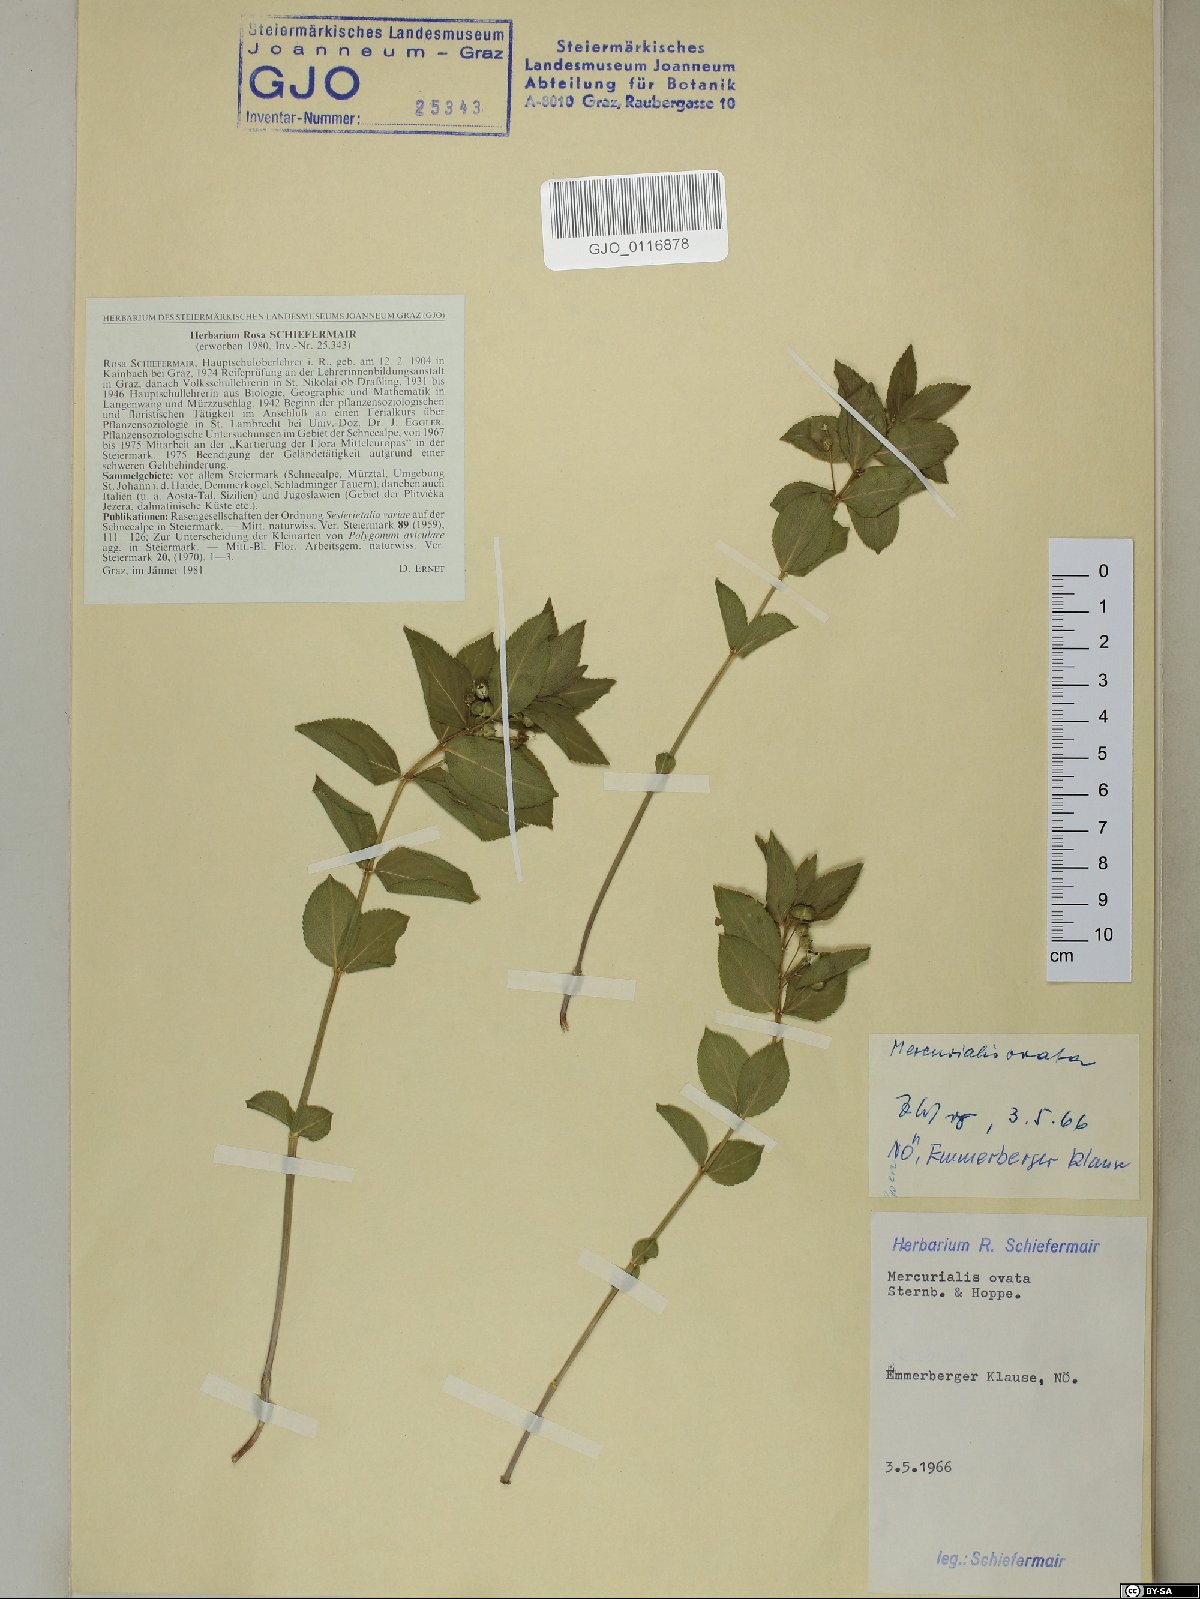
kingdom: Plantae
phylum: Tracheophyta
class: Magnoliopsida
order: Malpighiales
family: Euphorbiaceae
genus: Mercurialis
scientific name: Mercurialis ovata
